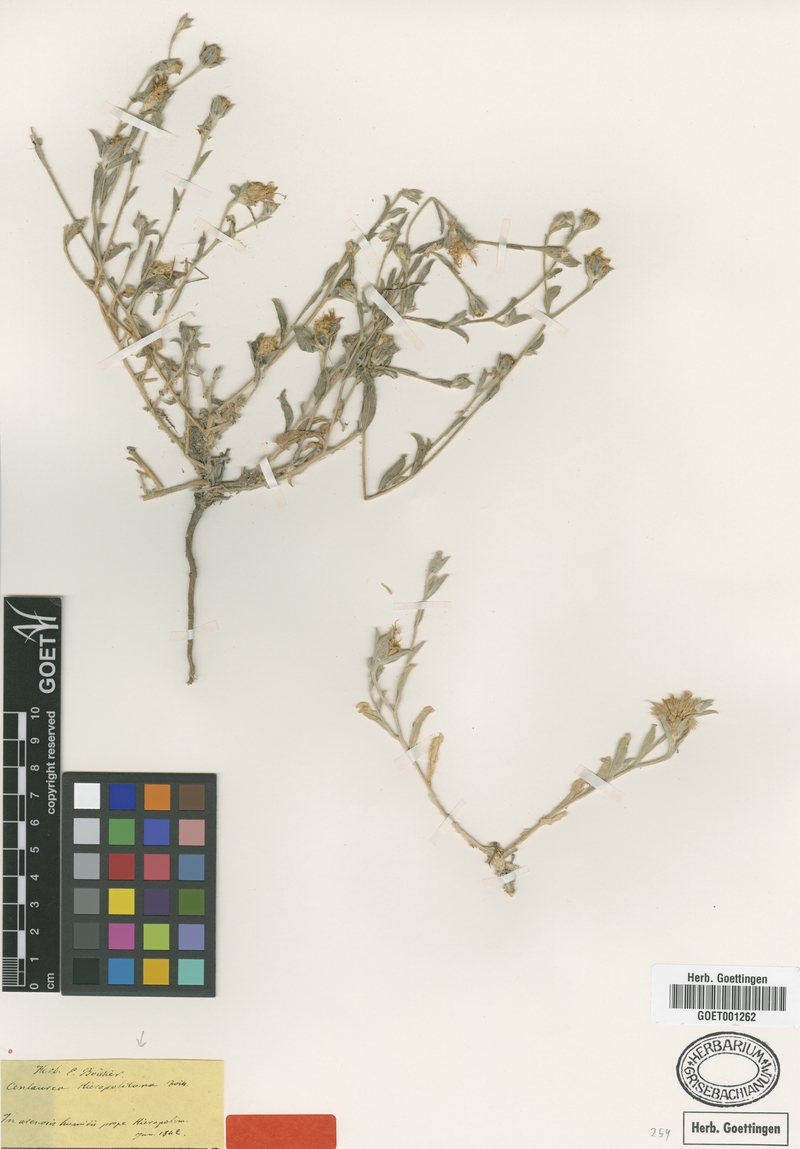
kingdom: Plantae
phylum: Tracheophyta
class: Magnoliopsida
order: Asterales
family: Asteraceae
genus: Centaurea
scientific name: Centaurea hierapolitana
